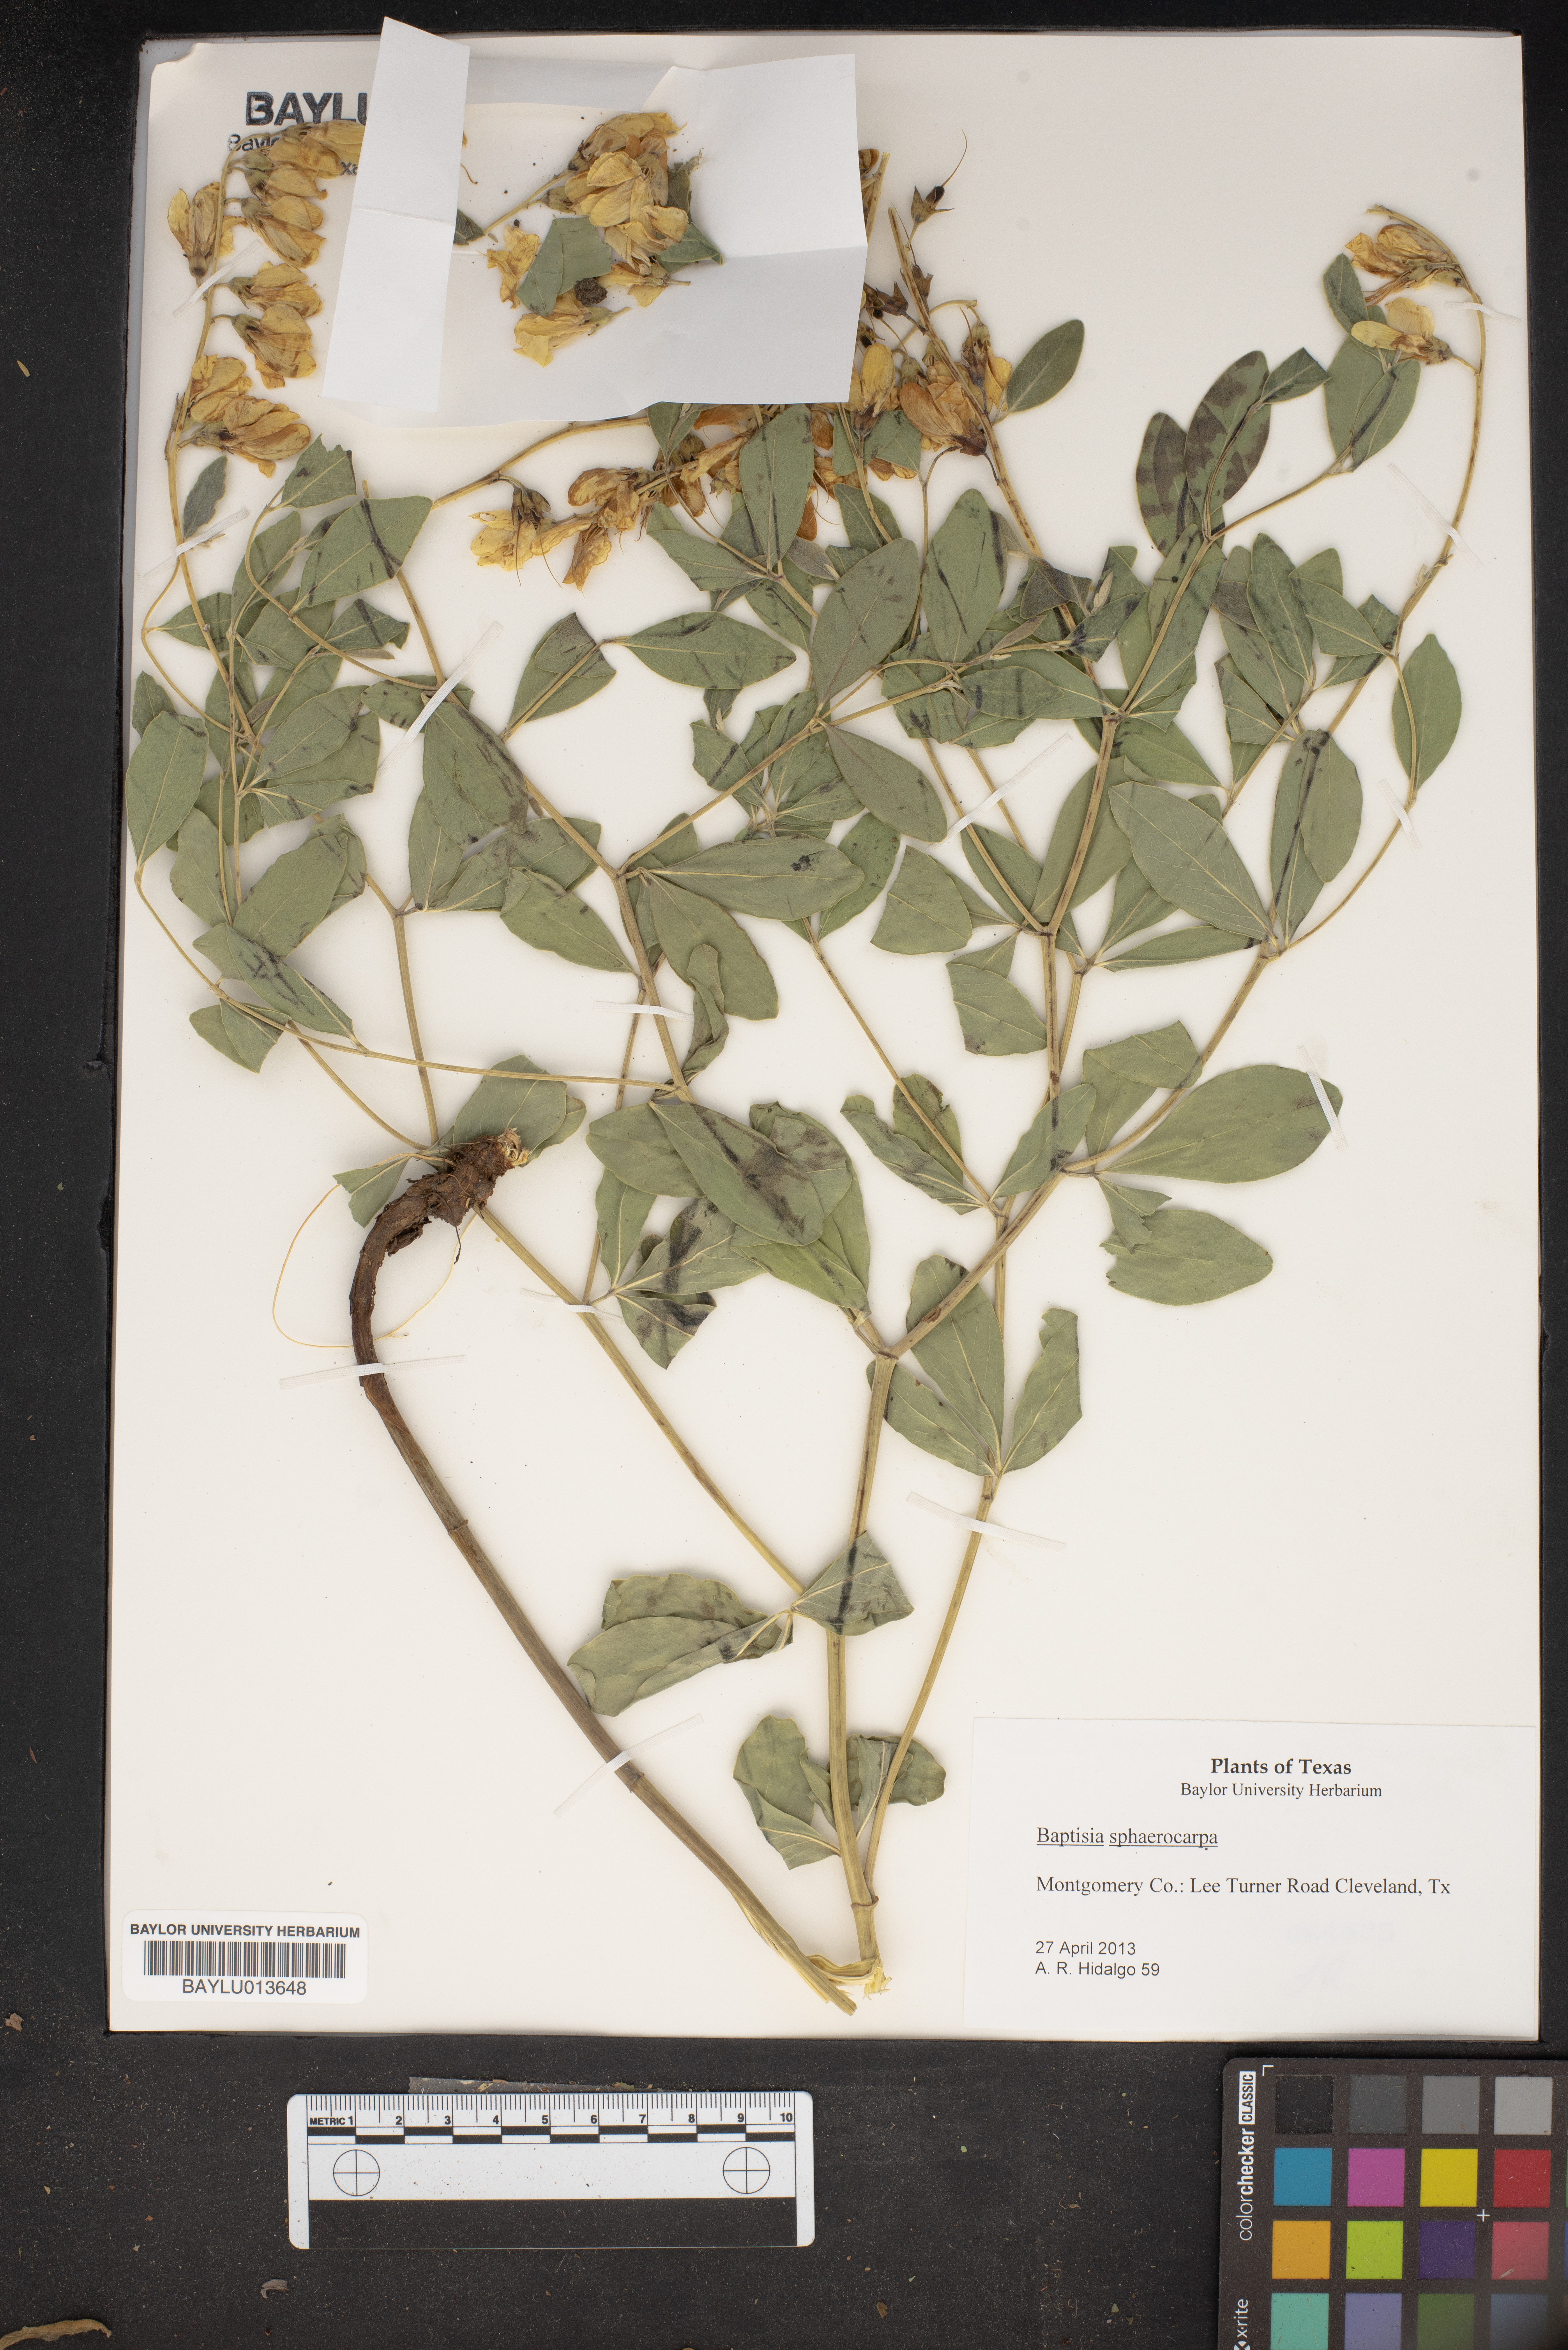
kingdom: Plantae
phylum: Tracheophyta
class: Magnoliopsida
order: Fabales
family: Fabaceae
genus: Baptisia
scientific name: Baptisia sphaerocarpa
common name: Round wild indigo
